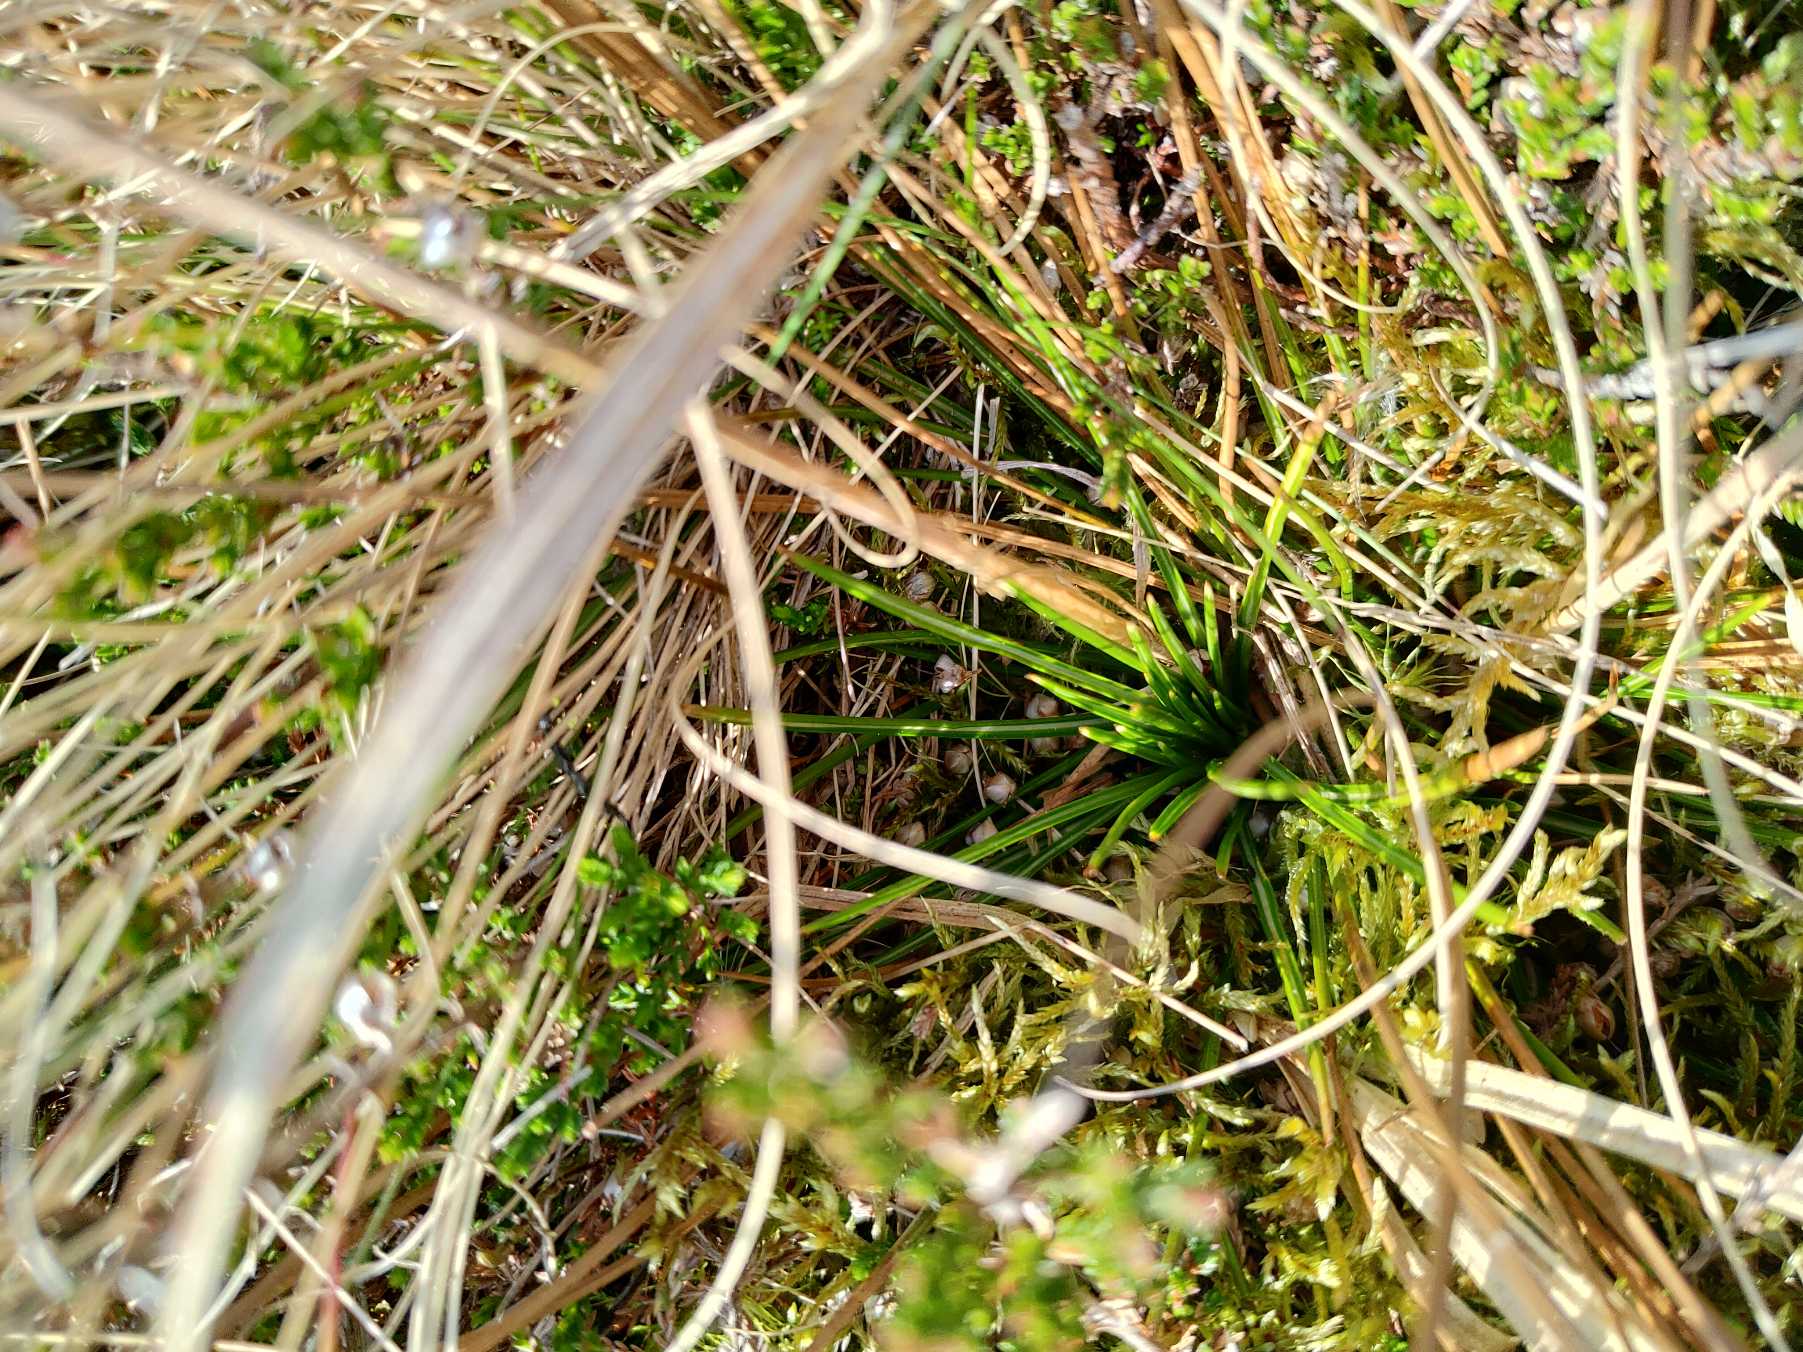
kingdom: Plantae
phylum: Tracheophyta
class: Liliopsida
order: Poales
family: Juncaceae
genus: Juncus
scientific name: Juncus squarrosus
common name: Børste-siv
